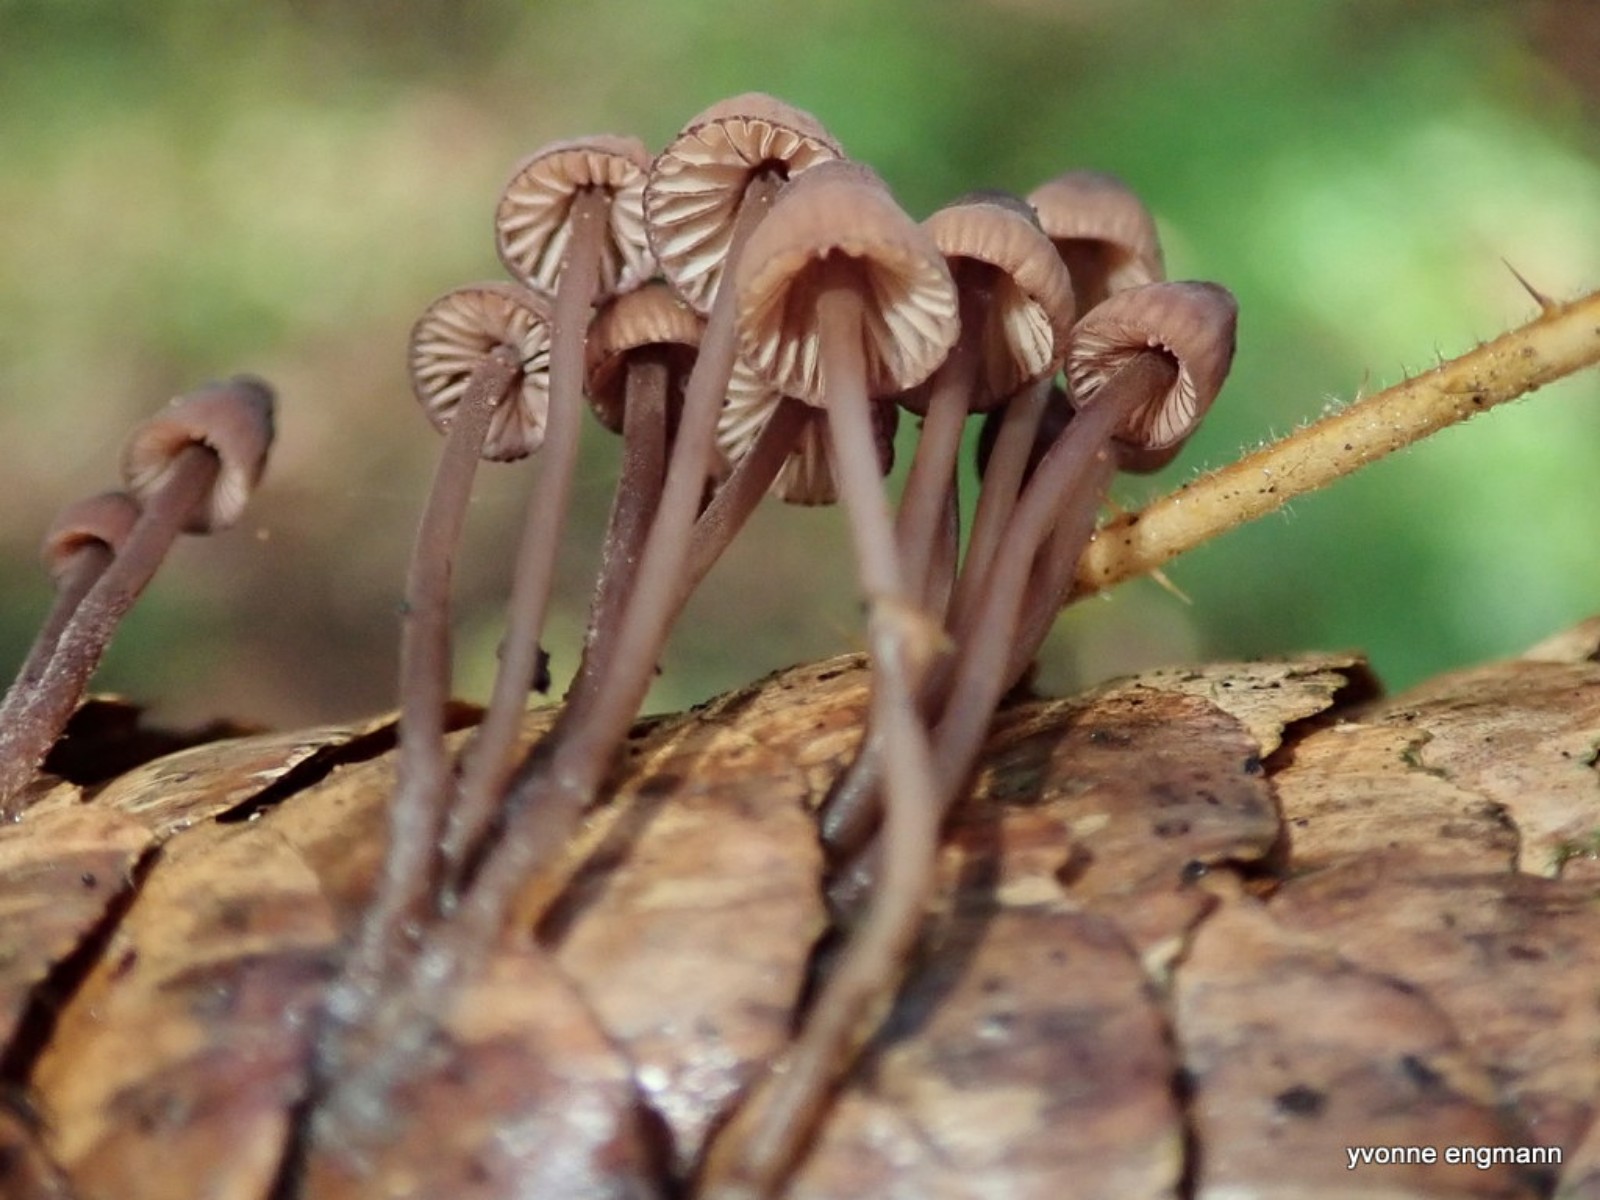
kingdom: Fungi
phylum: Basidiomycota
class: Agaricomycetes
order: Agaricales
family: Mycenaceae
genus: Mycena
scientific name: Mycena sanguinolenta
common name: rødmælket huesvamp
